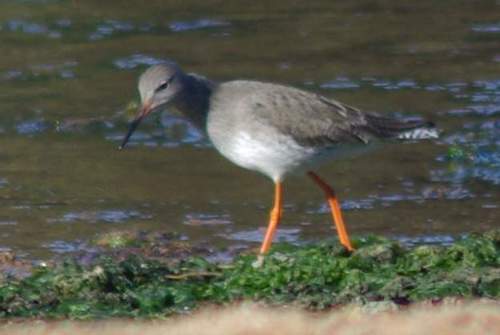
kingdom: Animalia
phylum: Chordata
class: Aves
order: Charadriiformes
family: Scolopacidae
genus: Tringa
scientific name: Tringa totanus
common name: Common redshank
